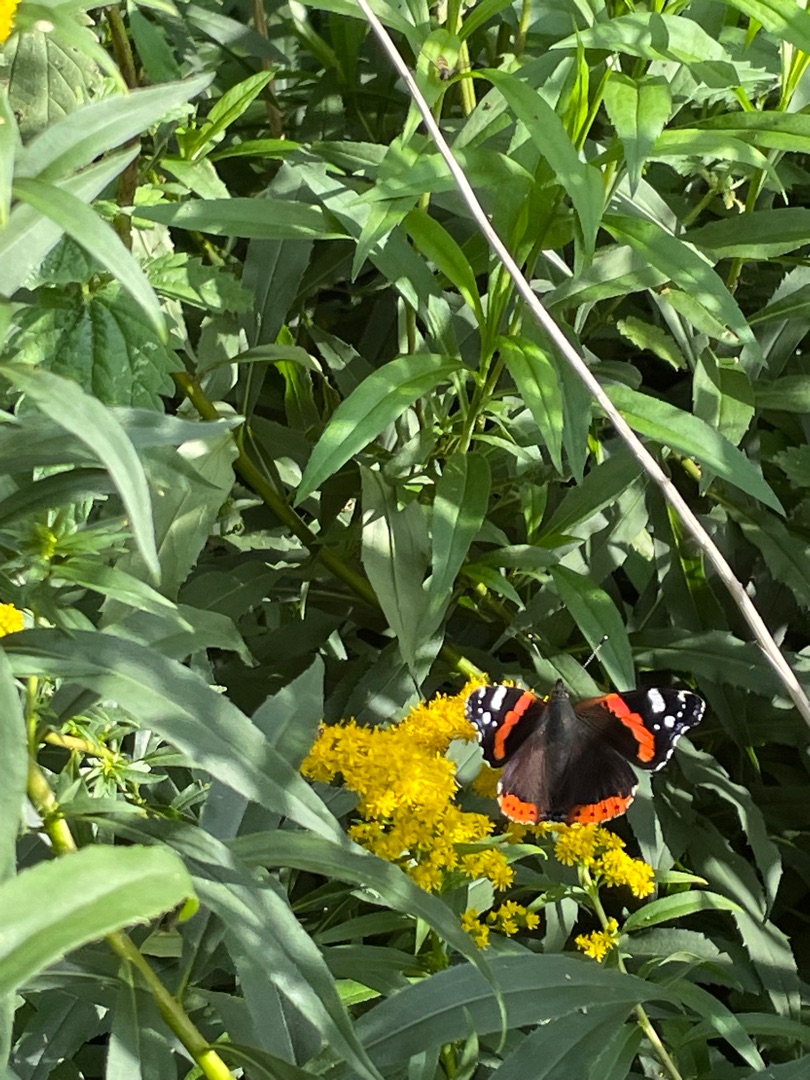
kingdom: Animalia
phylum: Arthropoda
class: Insecta
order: Lepidoptera
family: Nymphalidae
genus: Vanessa
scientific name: Vanessa atalanta
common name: Admiral
